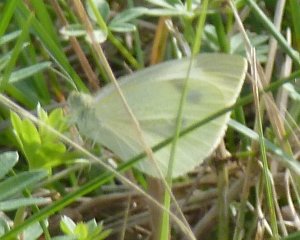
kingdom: Animalia
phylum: Arthropoda
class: Insecta
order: Lepidoptera
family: Pieridae
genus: Pieris
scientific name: Pieris rapae
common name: Cabbage White
